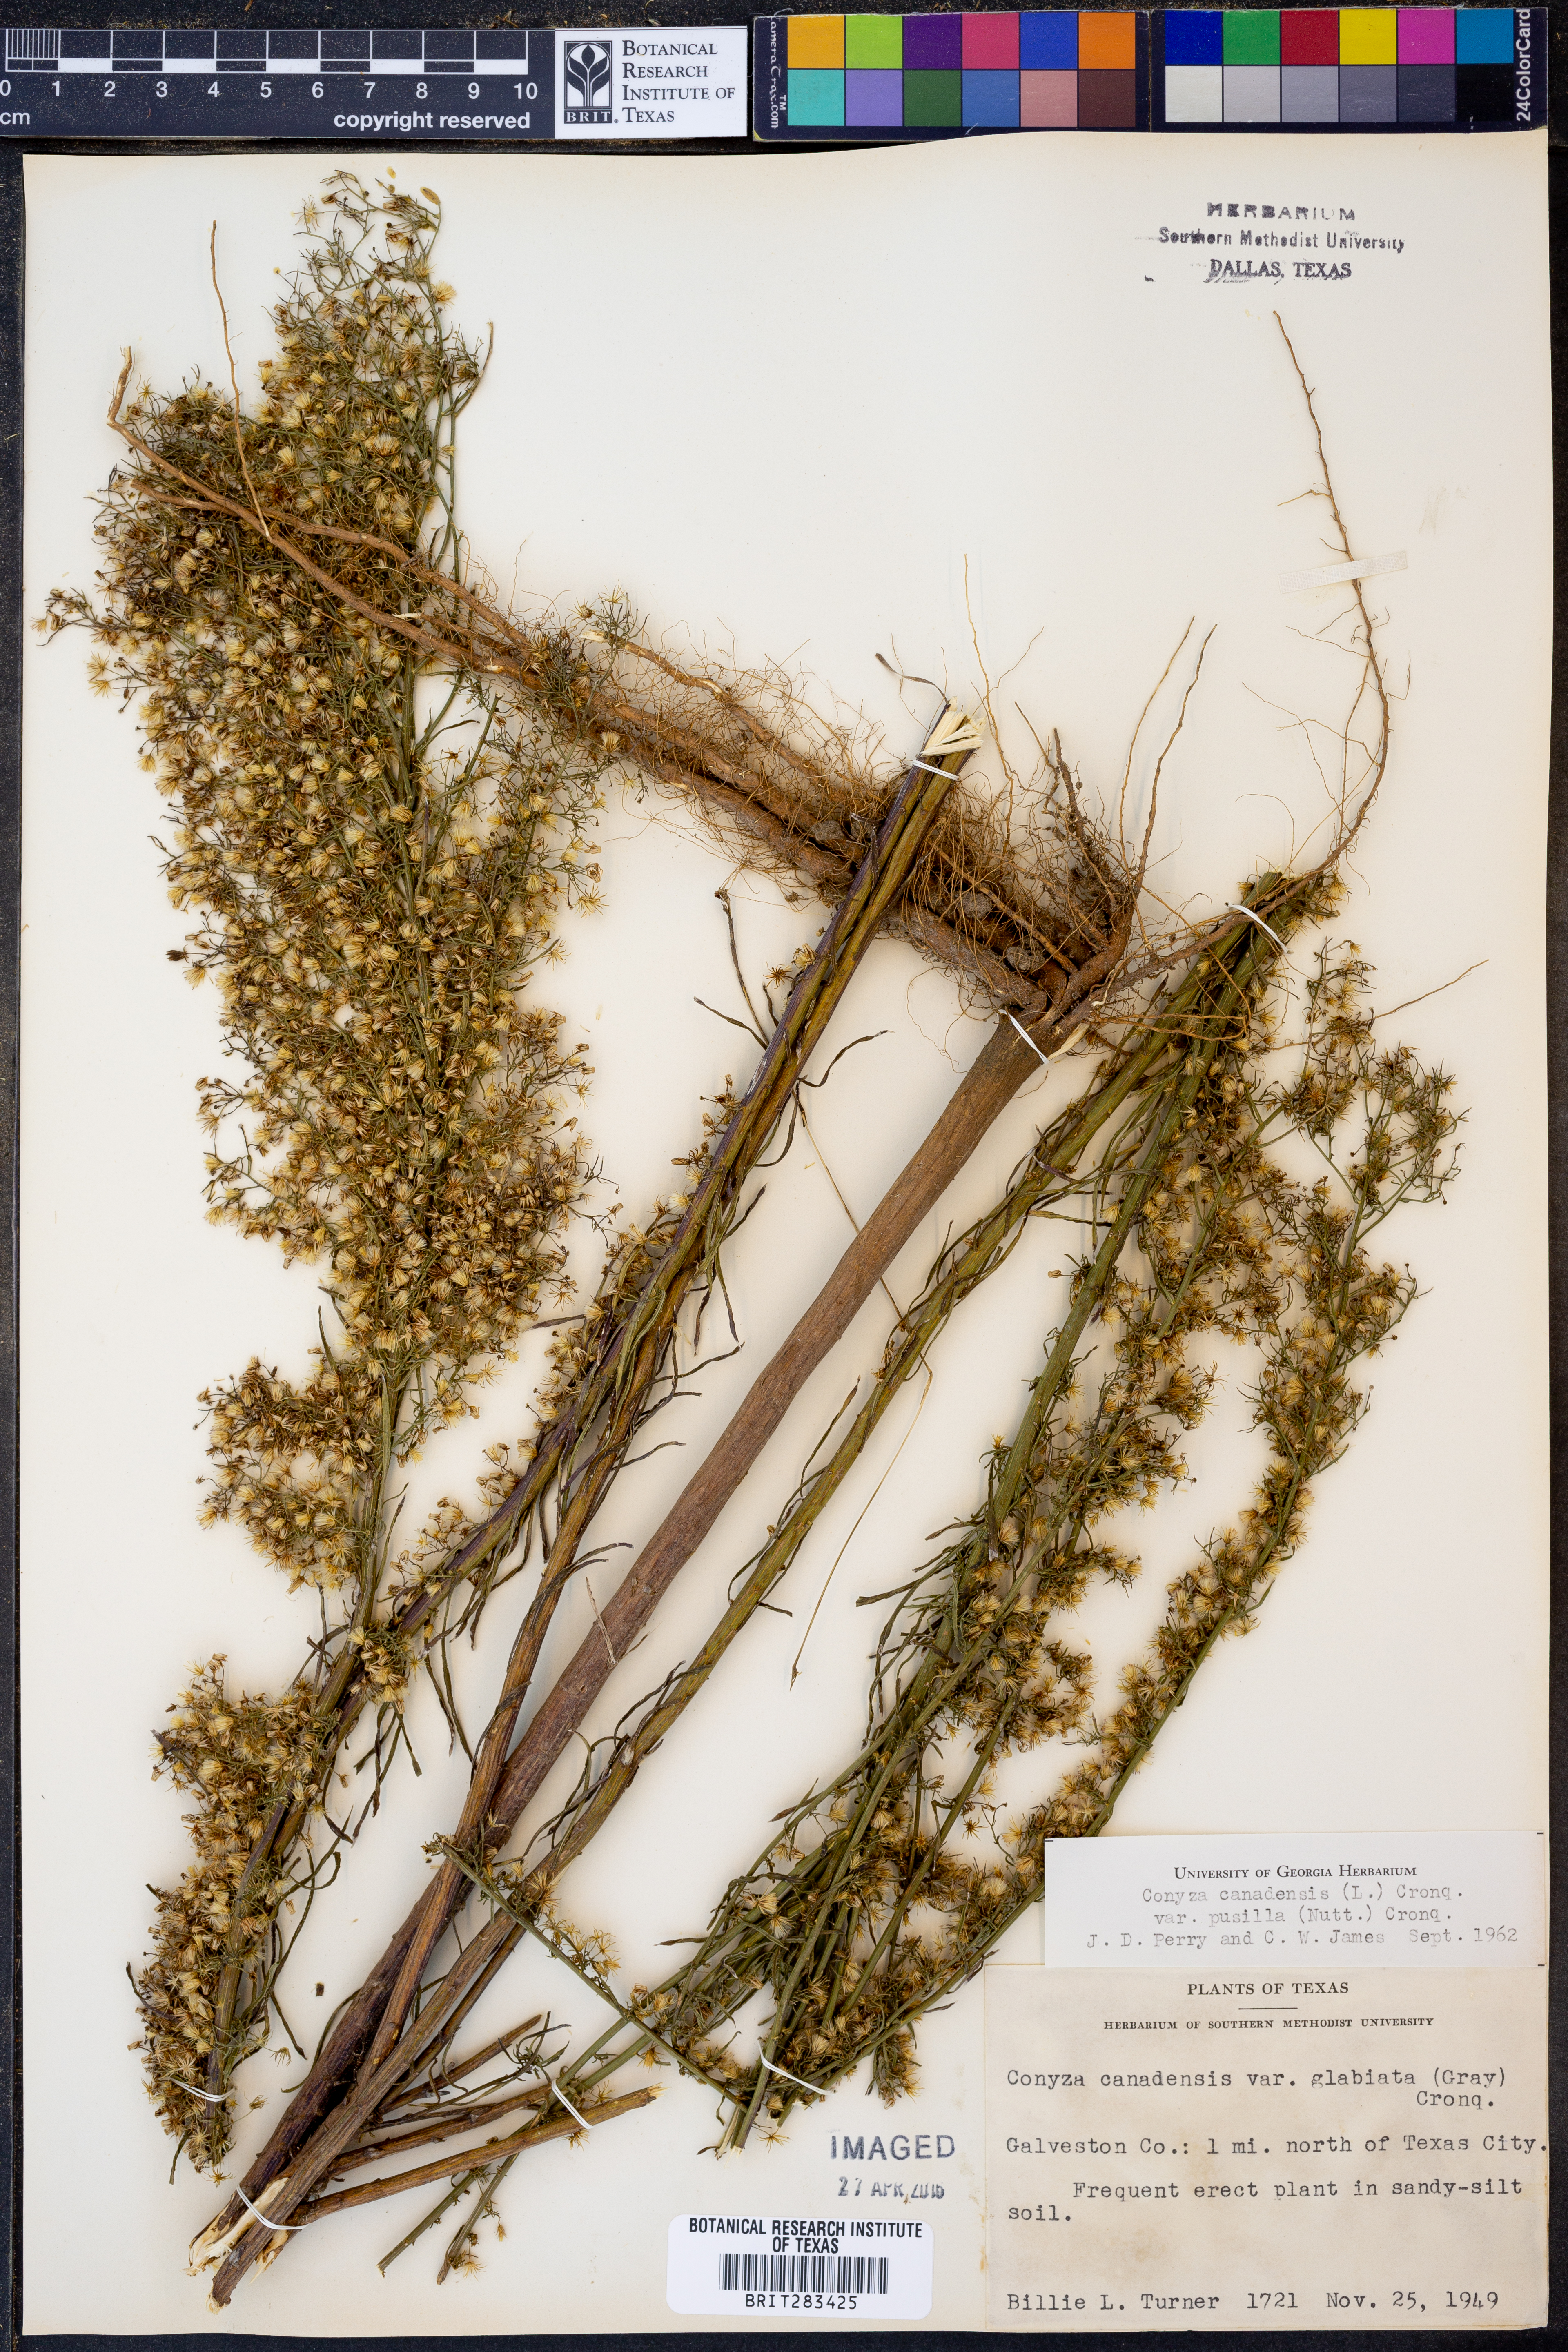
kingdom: Plantae
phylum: Tracheophyta
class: Magnoliopsida
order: Asterales
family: Asteraceae
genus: Erigeron
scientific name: Erigeron canadensis
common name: Canadian fleabane
